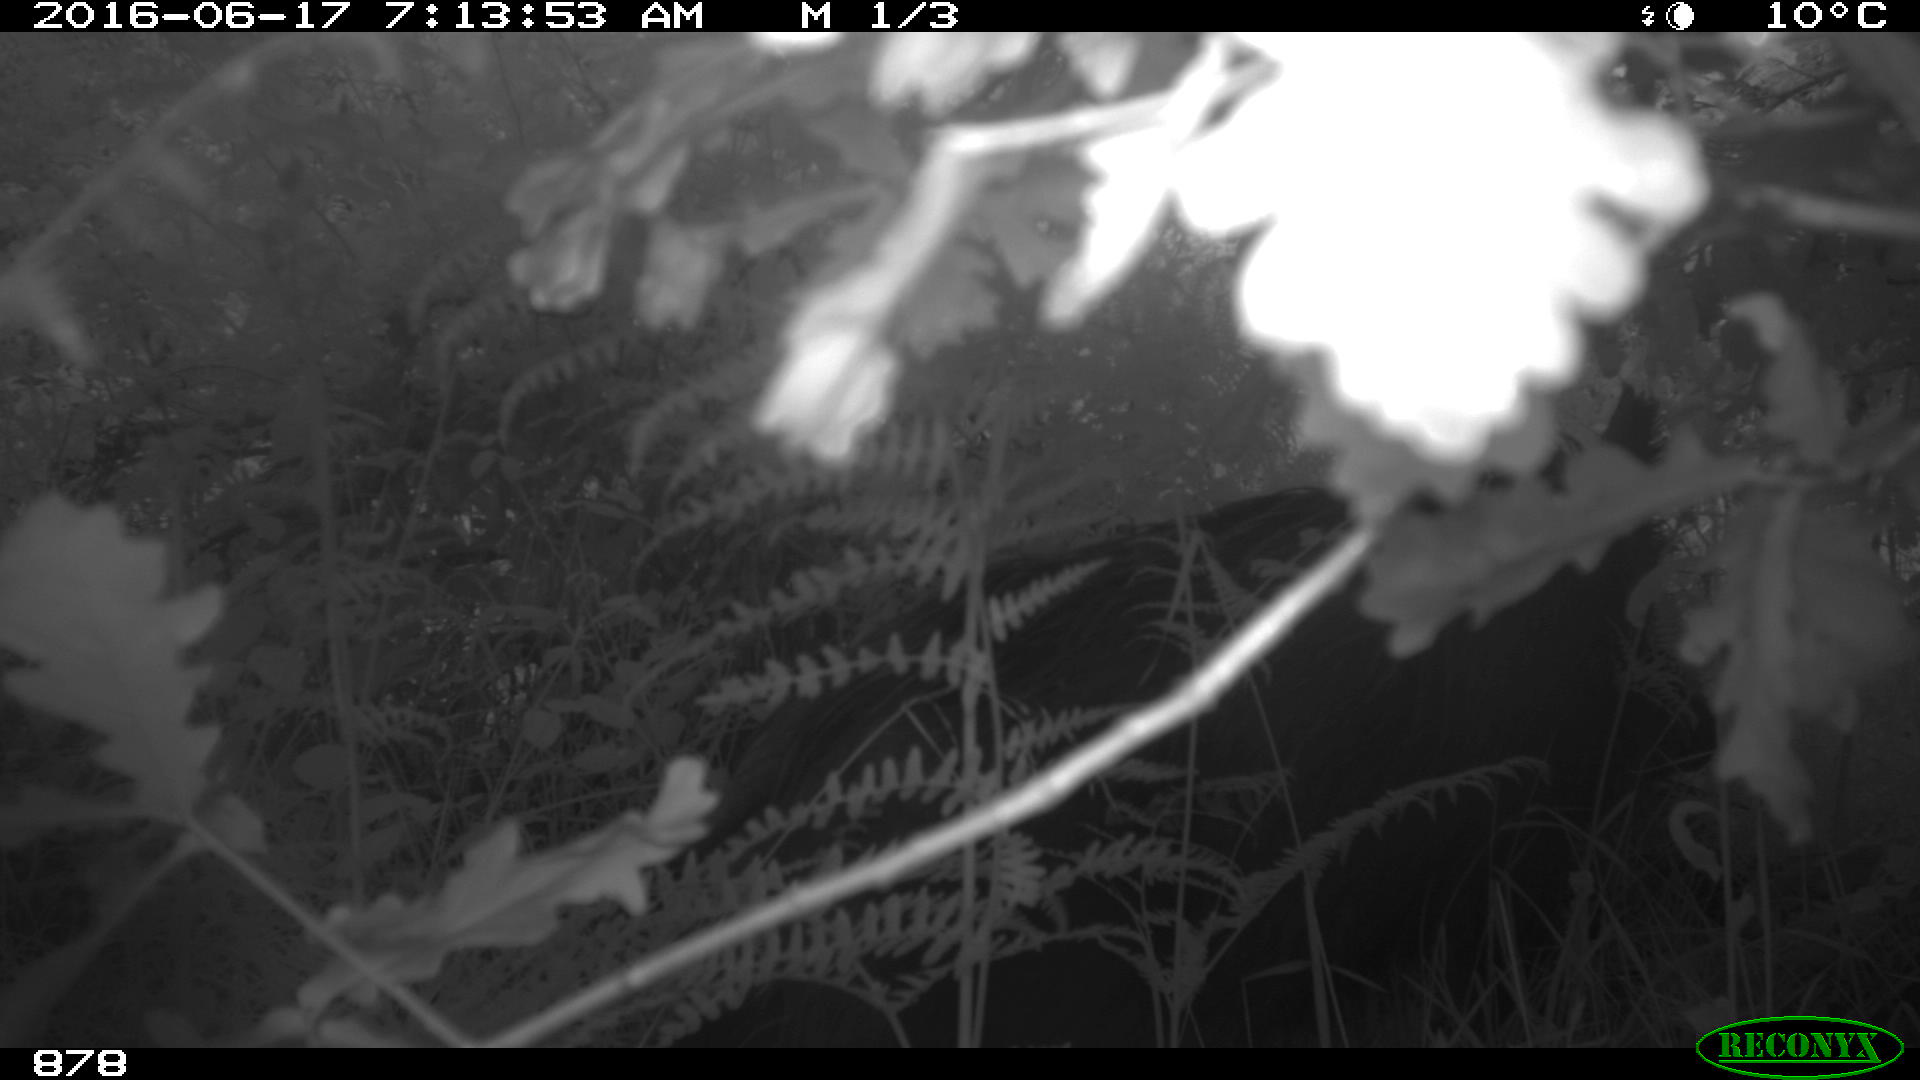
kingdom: Animalia
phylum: Chordata
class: Mammalia
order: Artiodactyla
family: Suidae
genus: Sus
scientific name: Sus scrofa
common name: Wild boar
